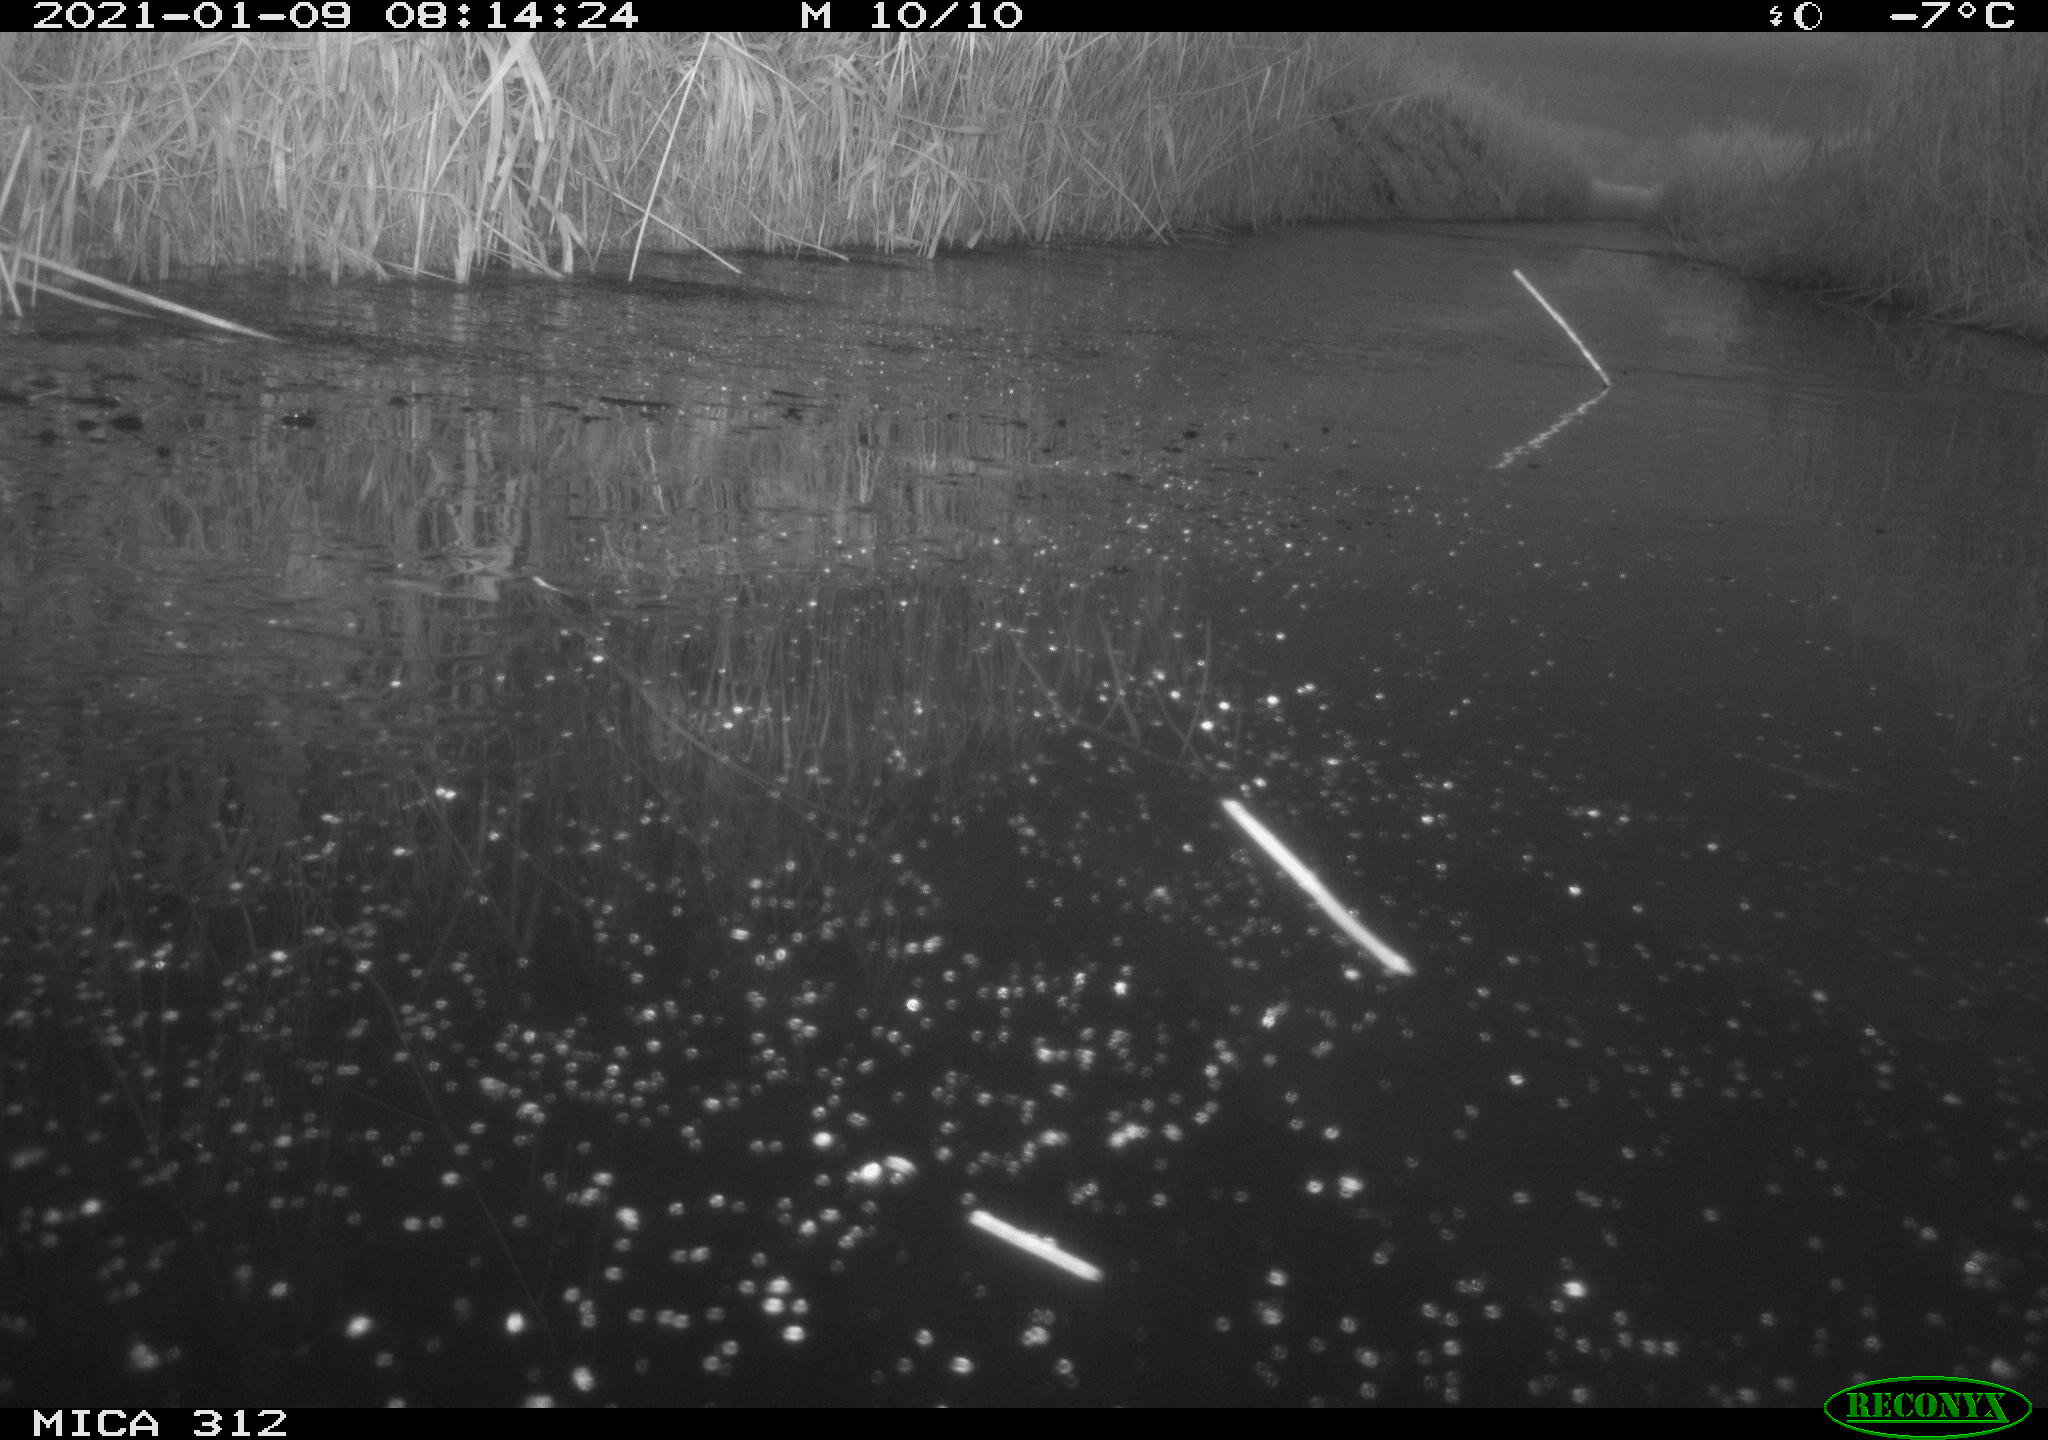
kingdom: Animalia
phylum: Chordata
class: Aves
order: Gruiformes
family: Rallidae
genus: Gallinula
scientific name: Gallinula chloropus
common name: Common moorhen
